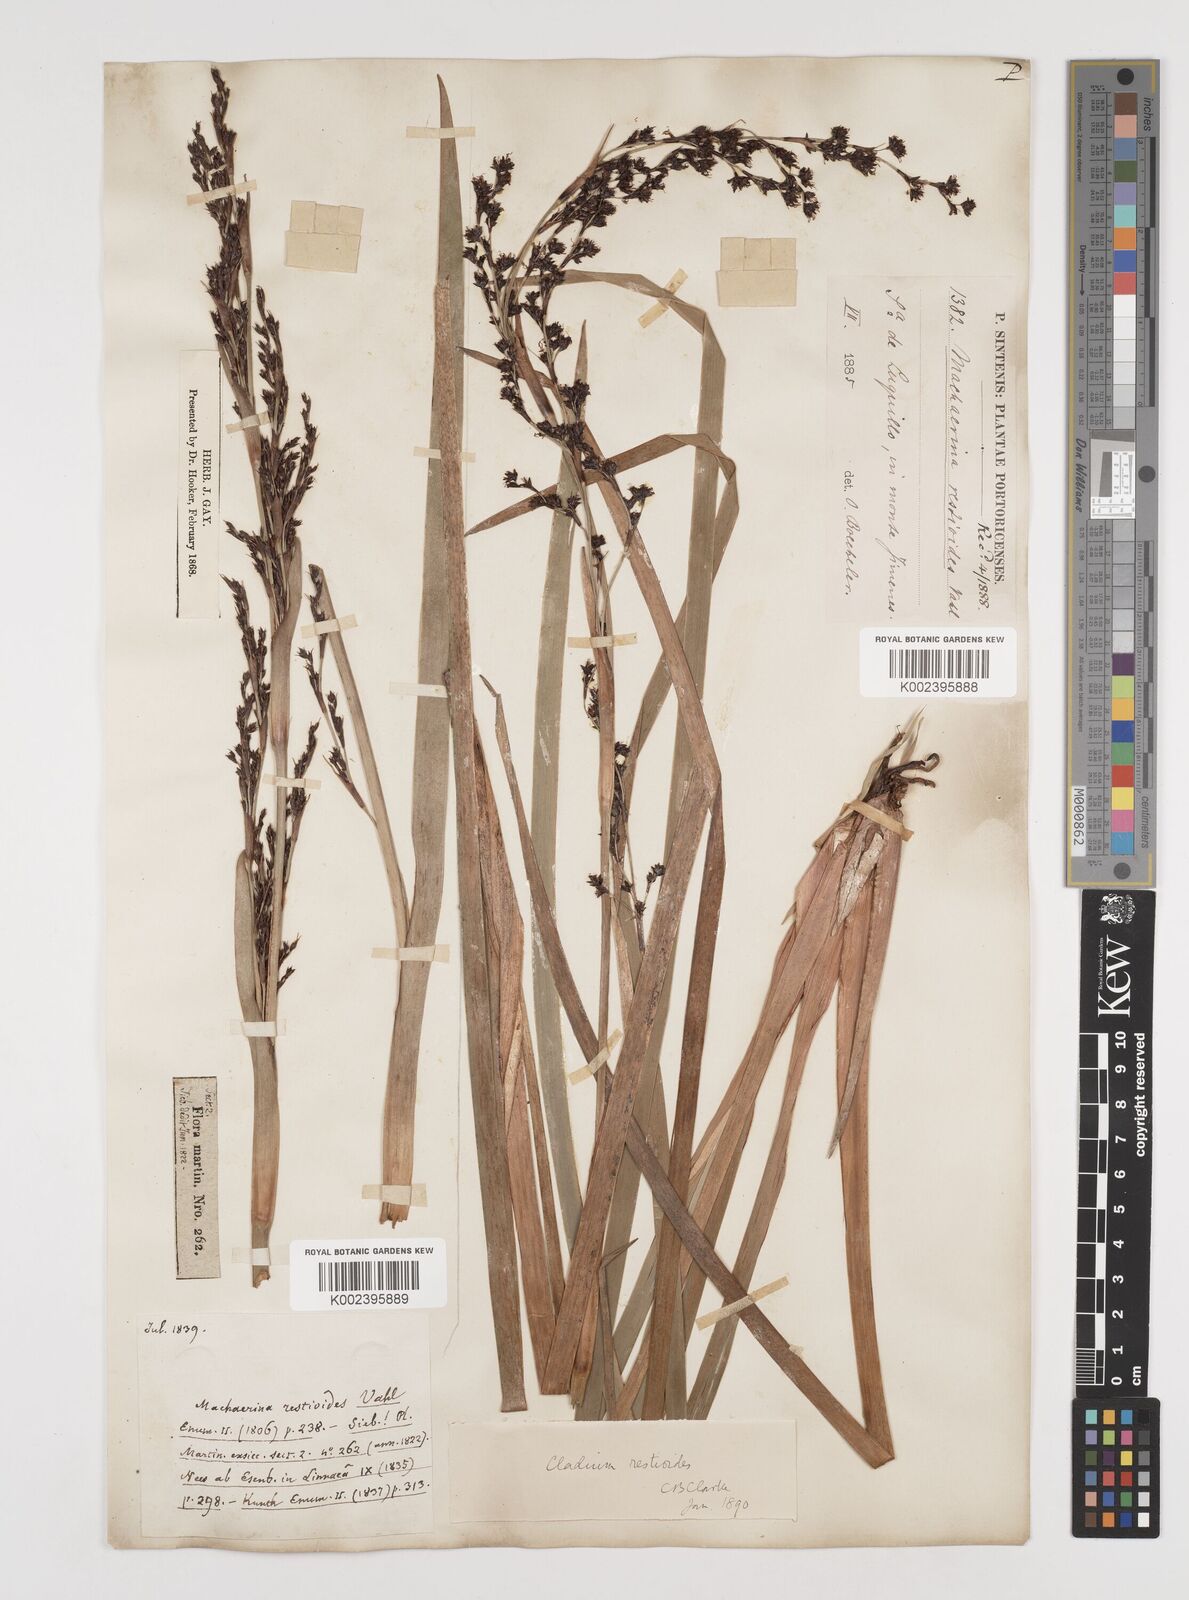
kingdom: Plantae
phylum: Tracheophyta
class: Liliopsida
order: Poales
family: Cyperaceae
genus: Machaerina
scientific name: Machaerina restioides
